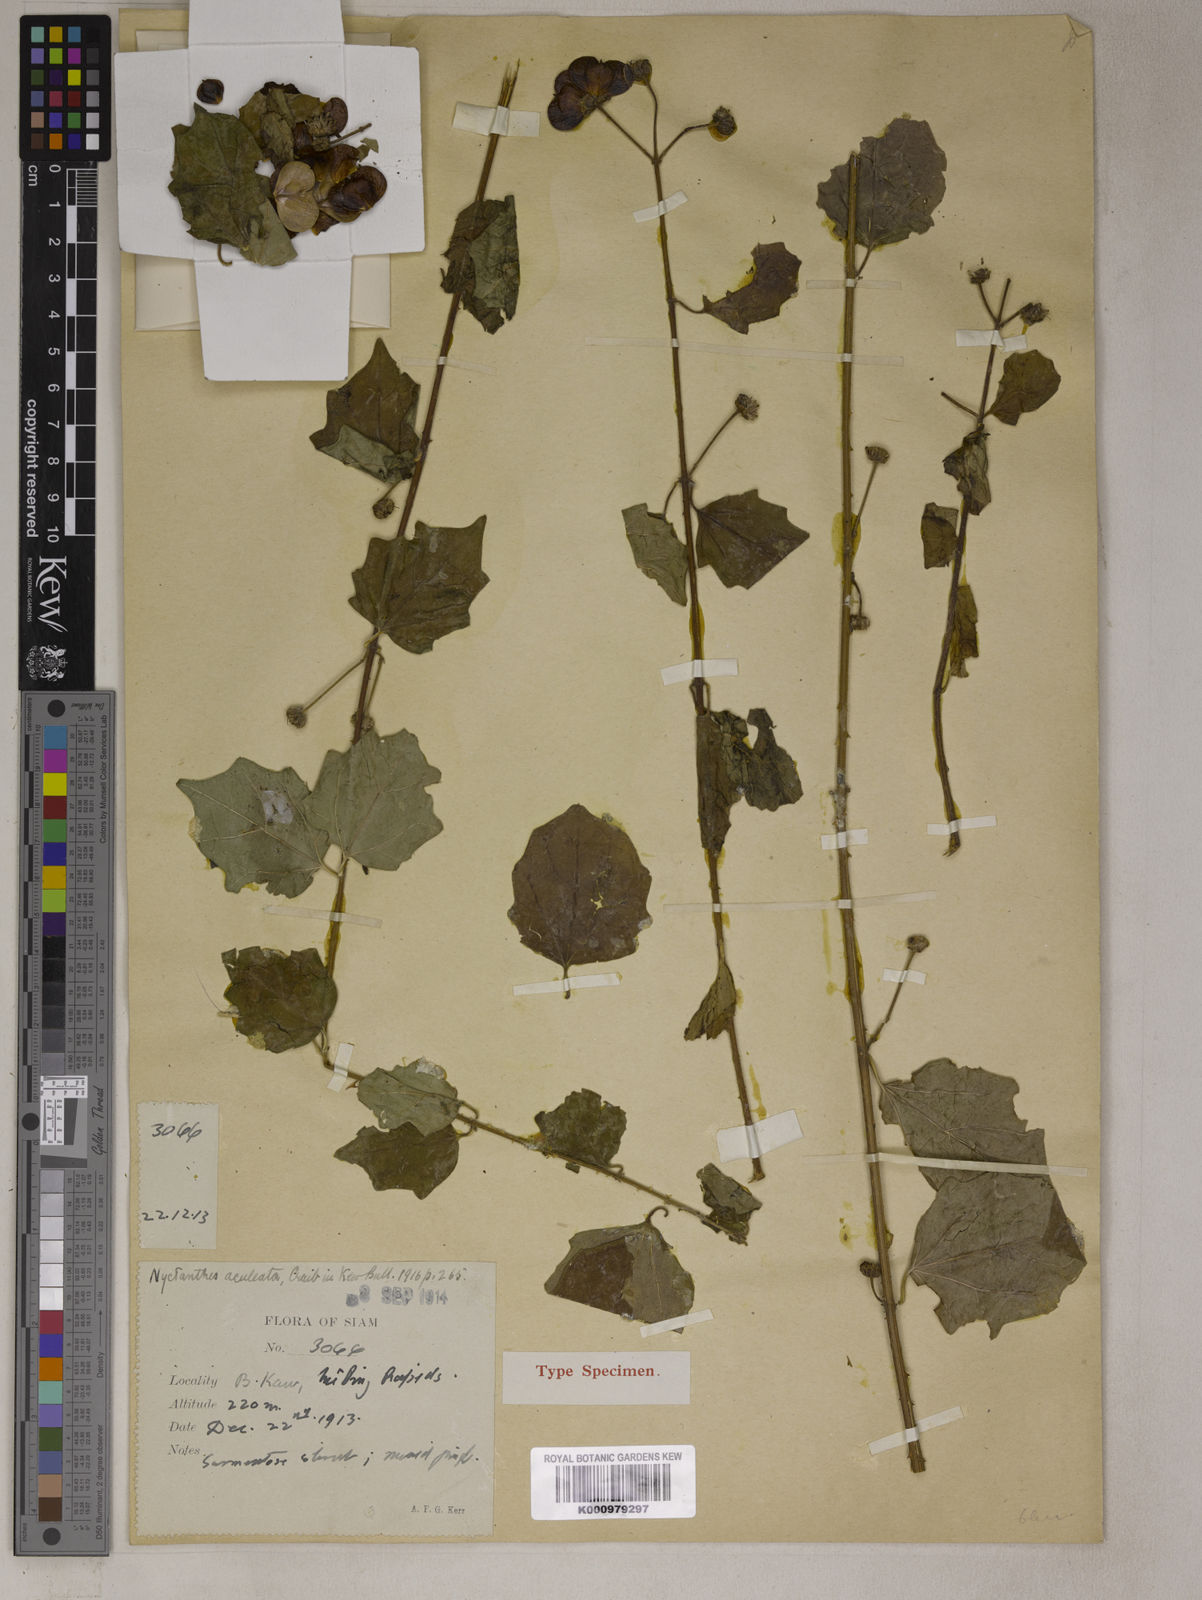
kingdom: Plantae
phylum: Tracheophyta
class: Magnoliopsida
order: Lamiales
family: Oleaceae
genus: Nyctanthes
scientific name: Nyctanthes aculeata
